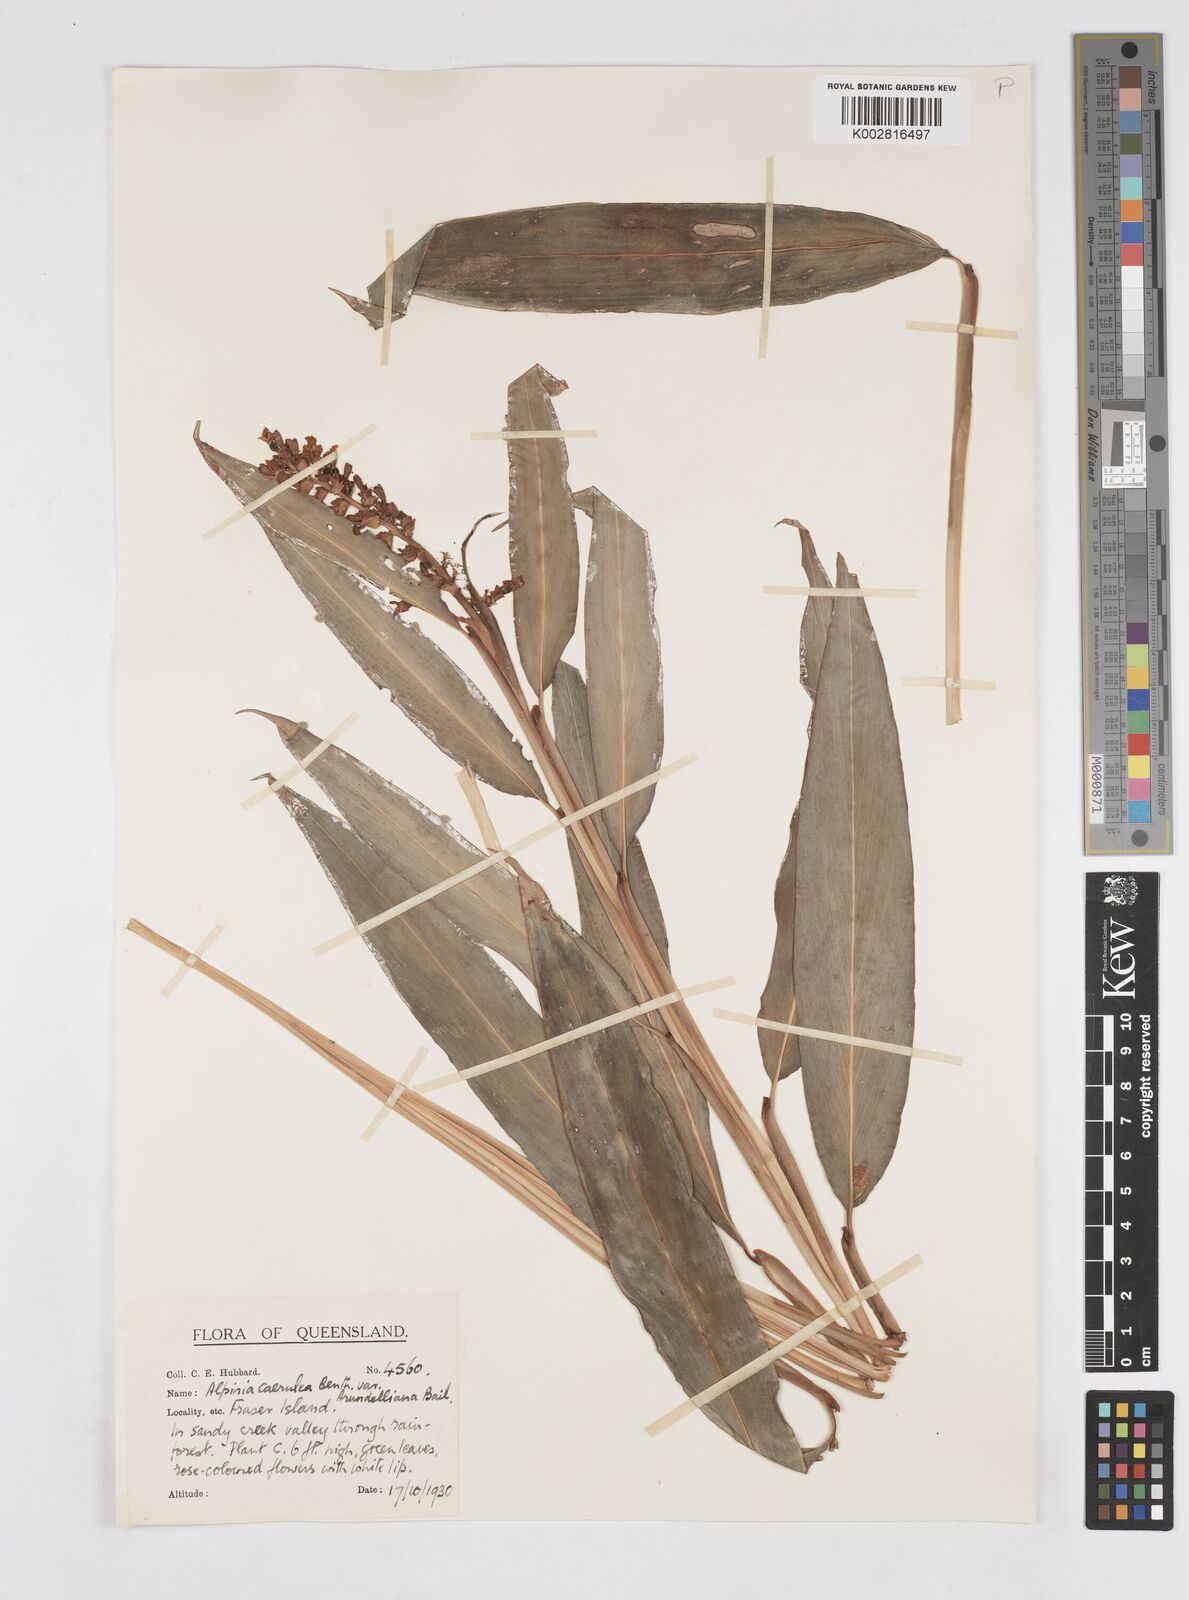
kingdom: Plantae
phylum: Tracheophyta
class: Liliopsida
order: Zingiberales
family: Zingiberaceae
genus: Alpinia
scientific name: Alpinia arundelliana
